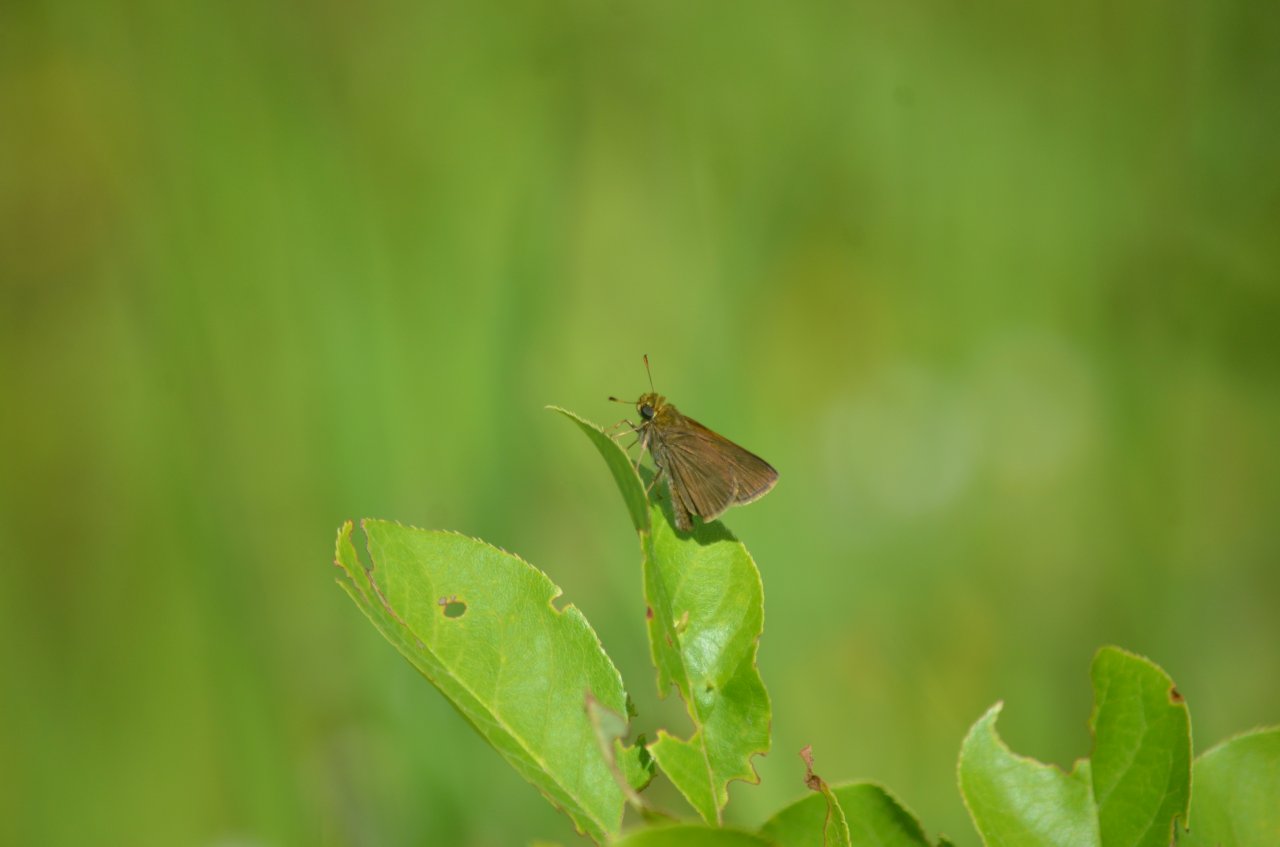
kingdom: Animalia
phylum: Arthropoda
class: Insecta
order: Lepidoptera
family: Hesperiidae
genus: Euphyes
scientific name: Euphyes vestris
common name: Dun Skipper
